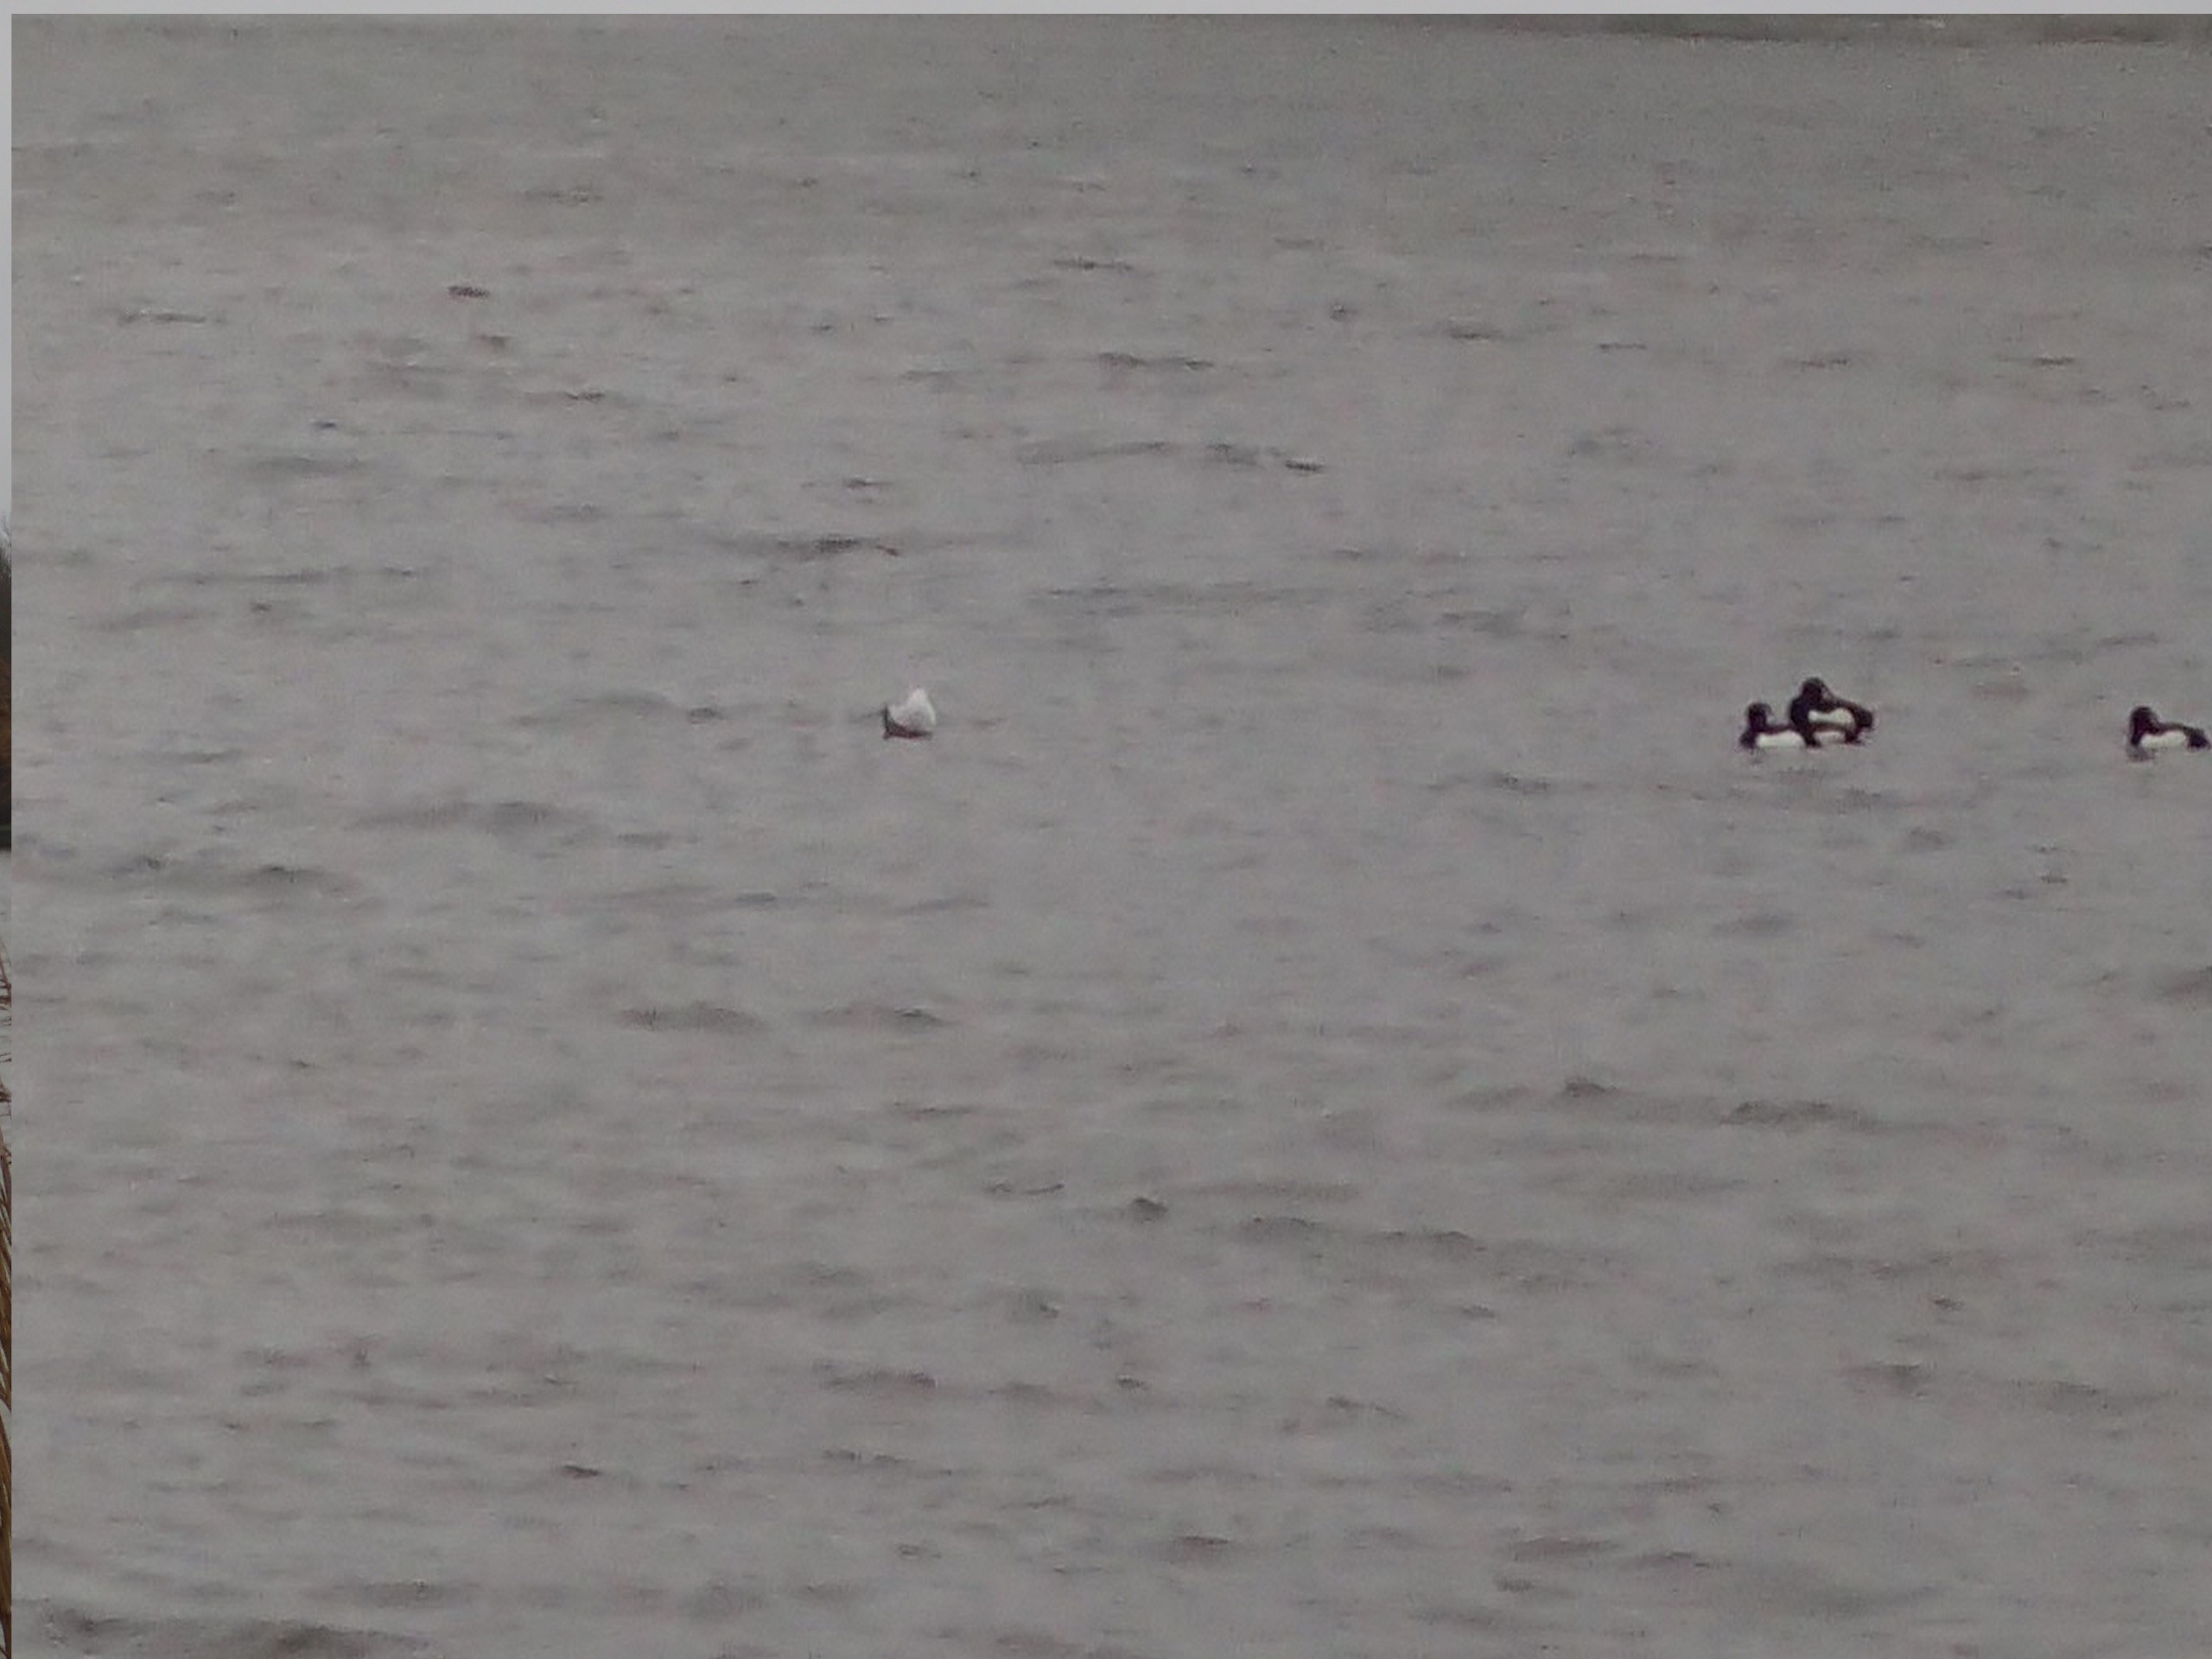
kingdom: Animalia
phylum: Chordata
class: Aves
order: Anseriformes
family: Anatidae
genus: Aythya
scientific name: Aythya fuligula
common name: Troldand
